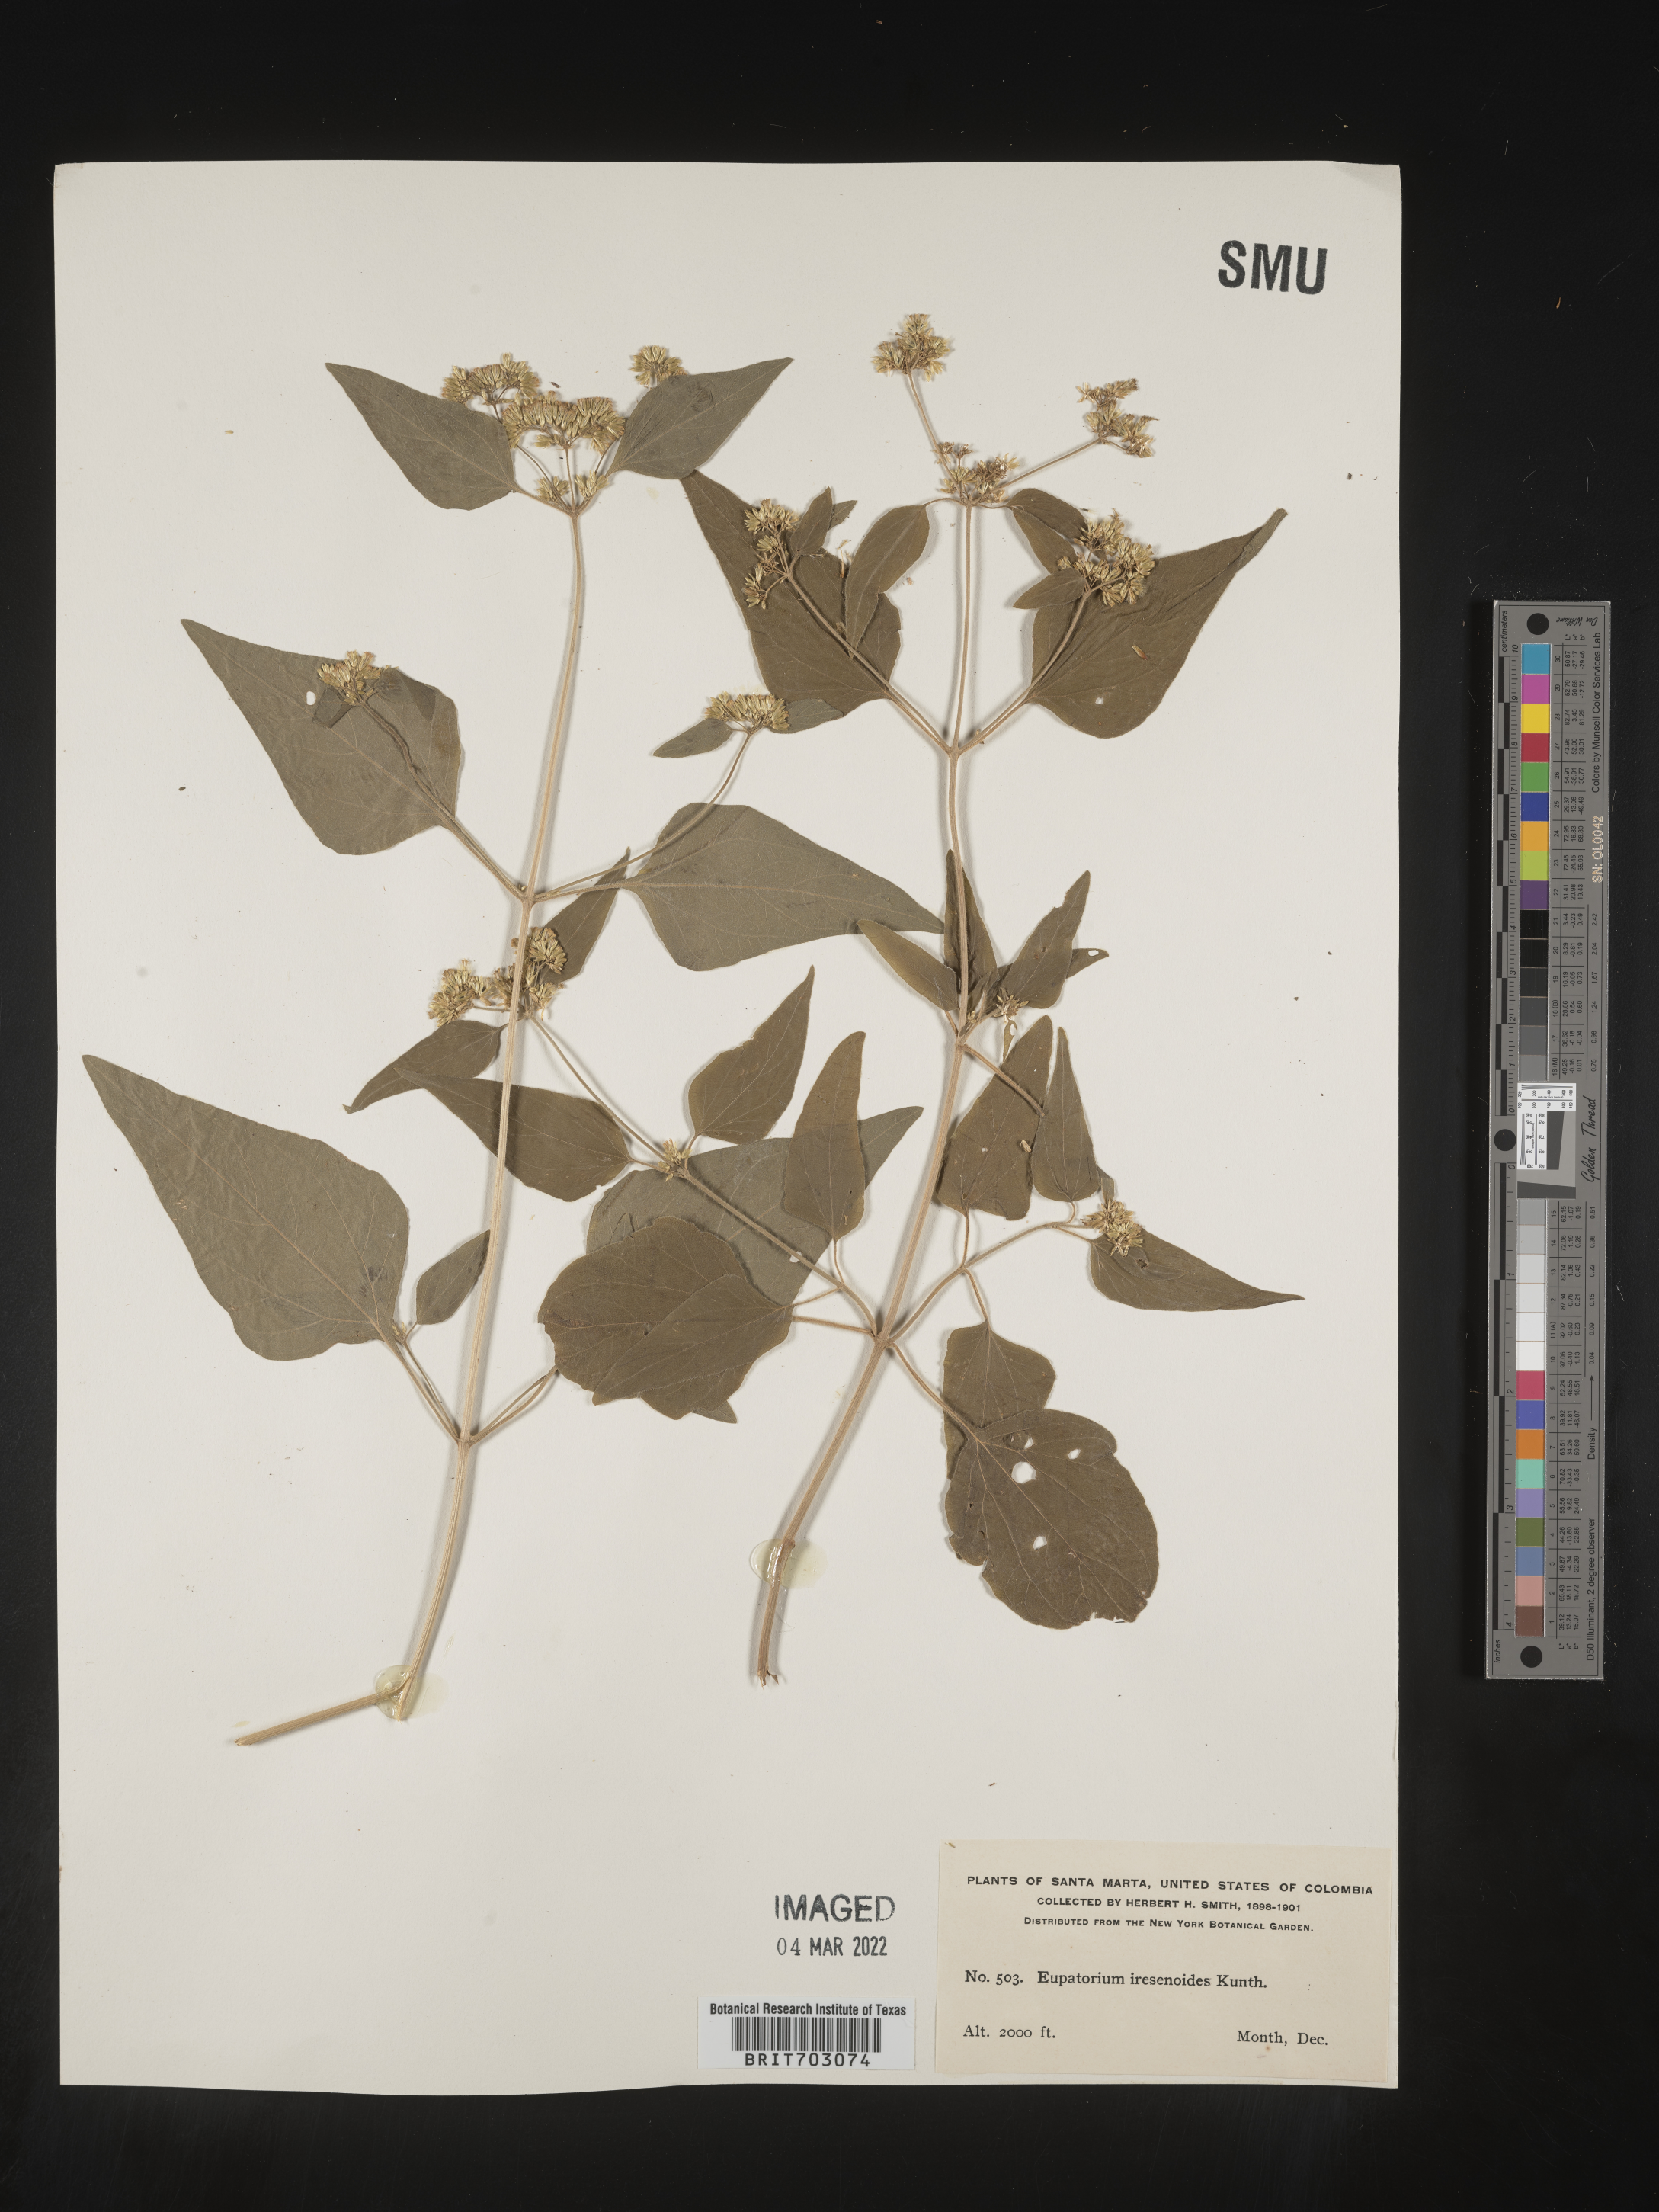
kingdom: Plantae
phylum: Tracheophyta
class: Magnoliopsida
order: Asterales
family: Asteraceae
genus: Eupatorium
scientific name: Eupatorium
